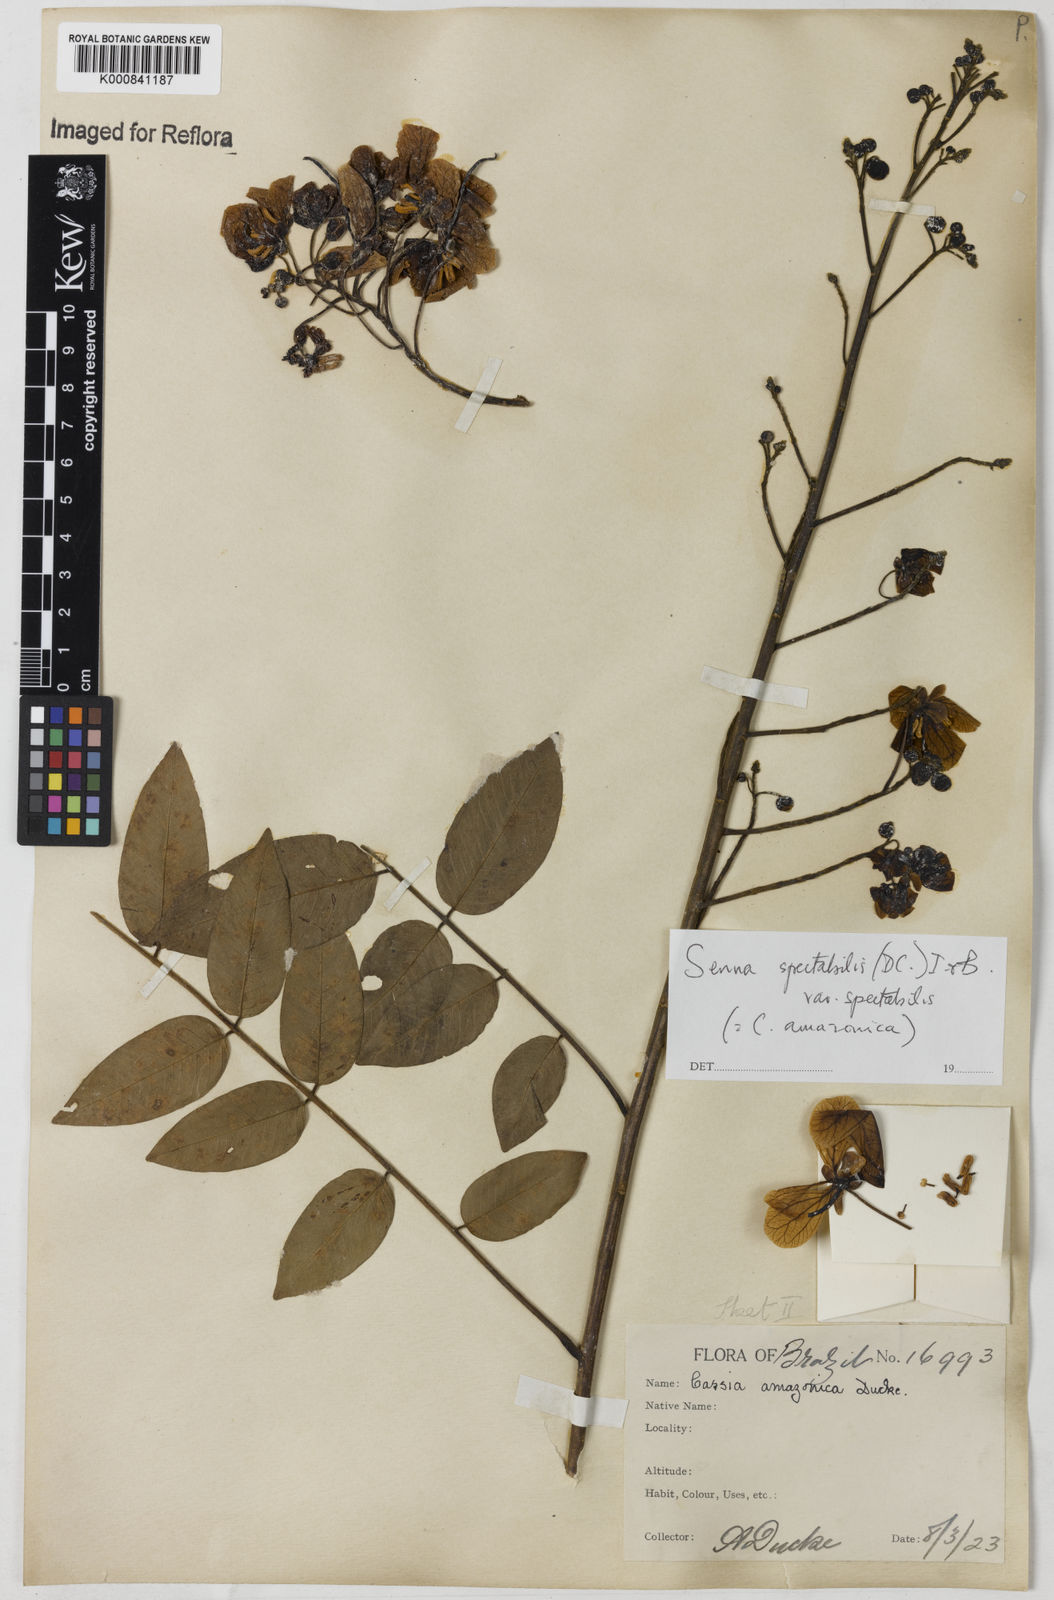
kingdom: Plantae
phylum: Tracheophyta
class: Magnoliopsida
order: Fabales
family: Fabaceae
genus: Senna
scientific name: Senna spectabilis
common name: Casia amarilla
